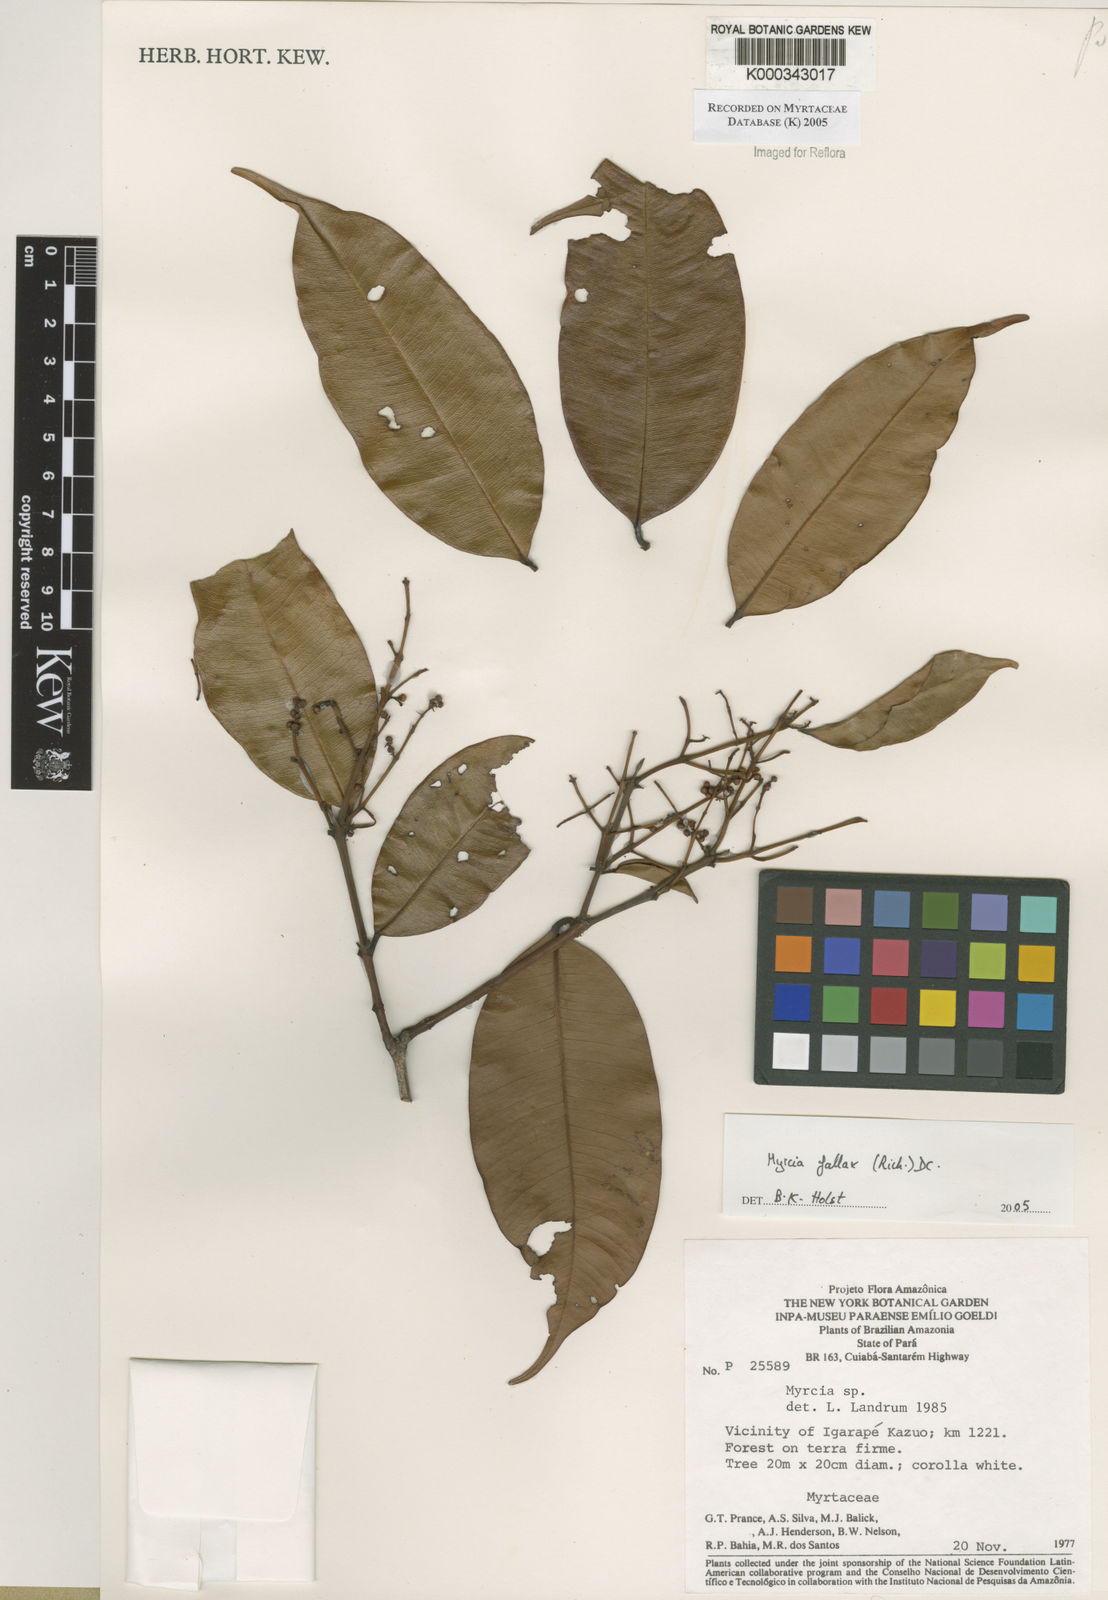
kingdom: Plantae
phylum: Tracheophyta
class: Magnoliopsida
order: Myrtales
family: Myrtaceae
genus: Myrcia
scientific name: Myrcia splendens
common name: Surinam cherry
